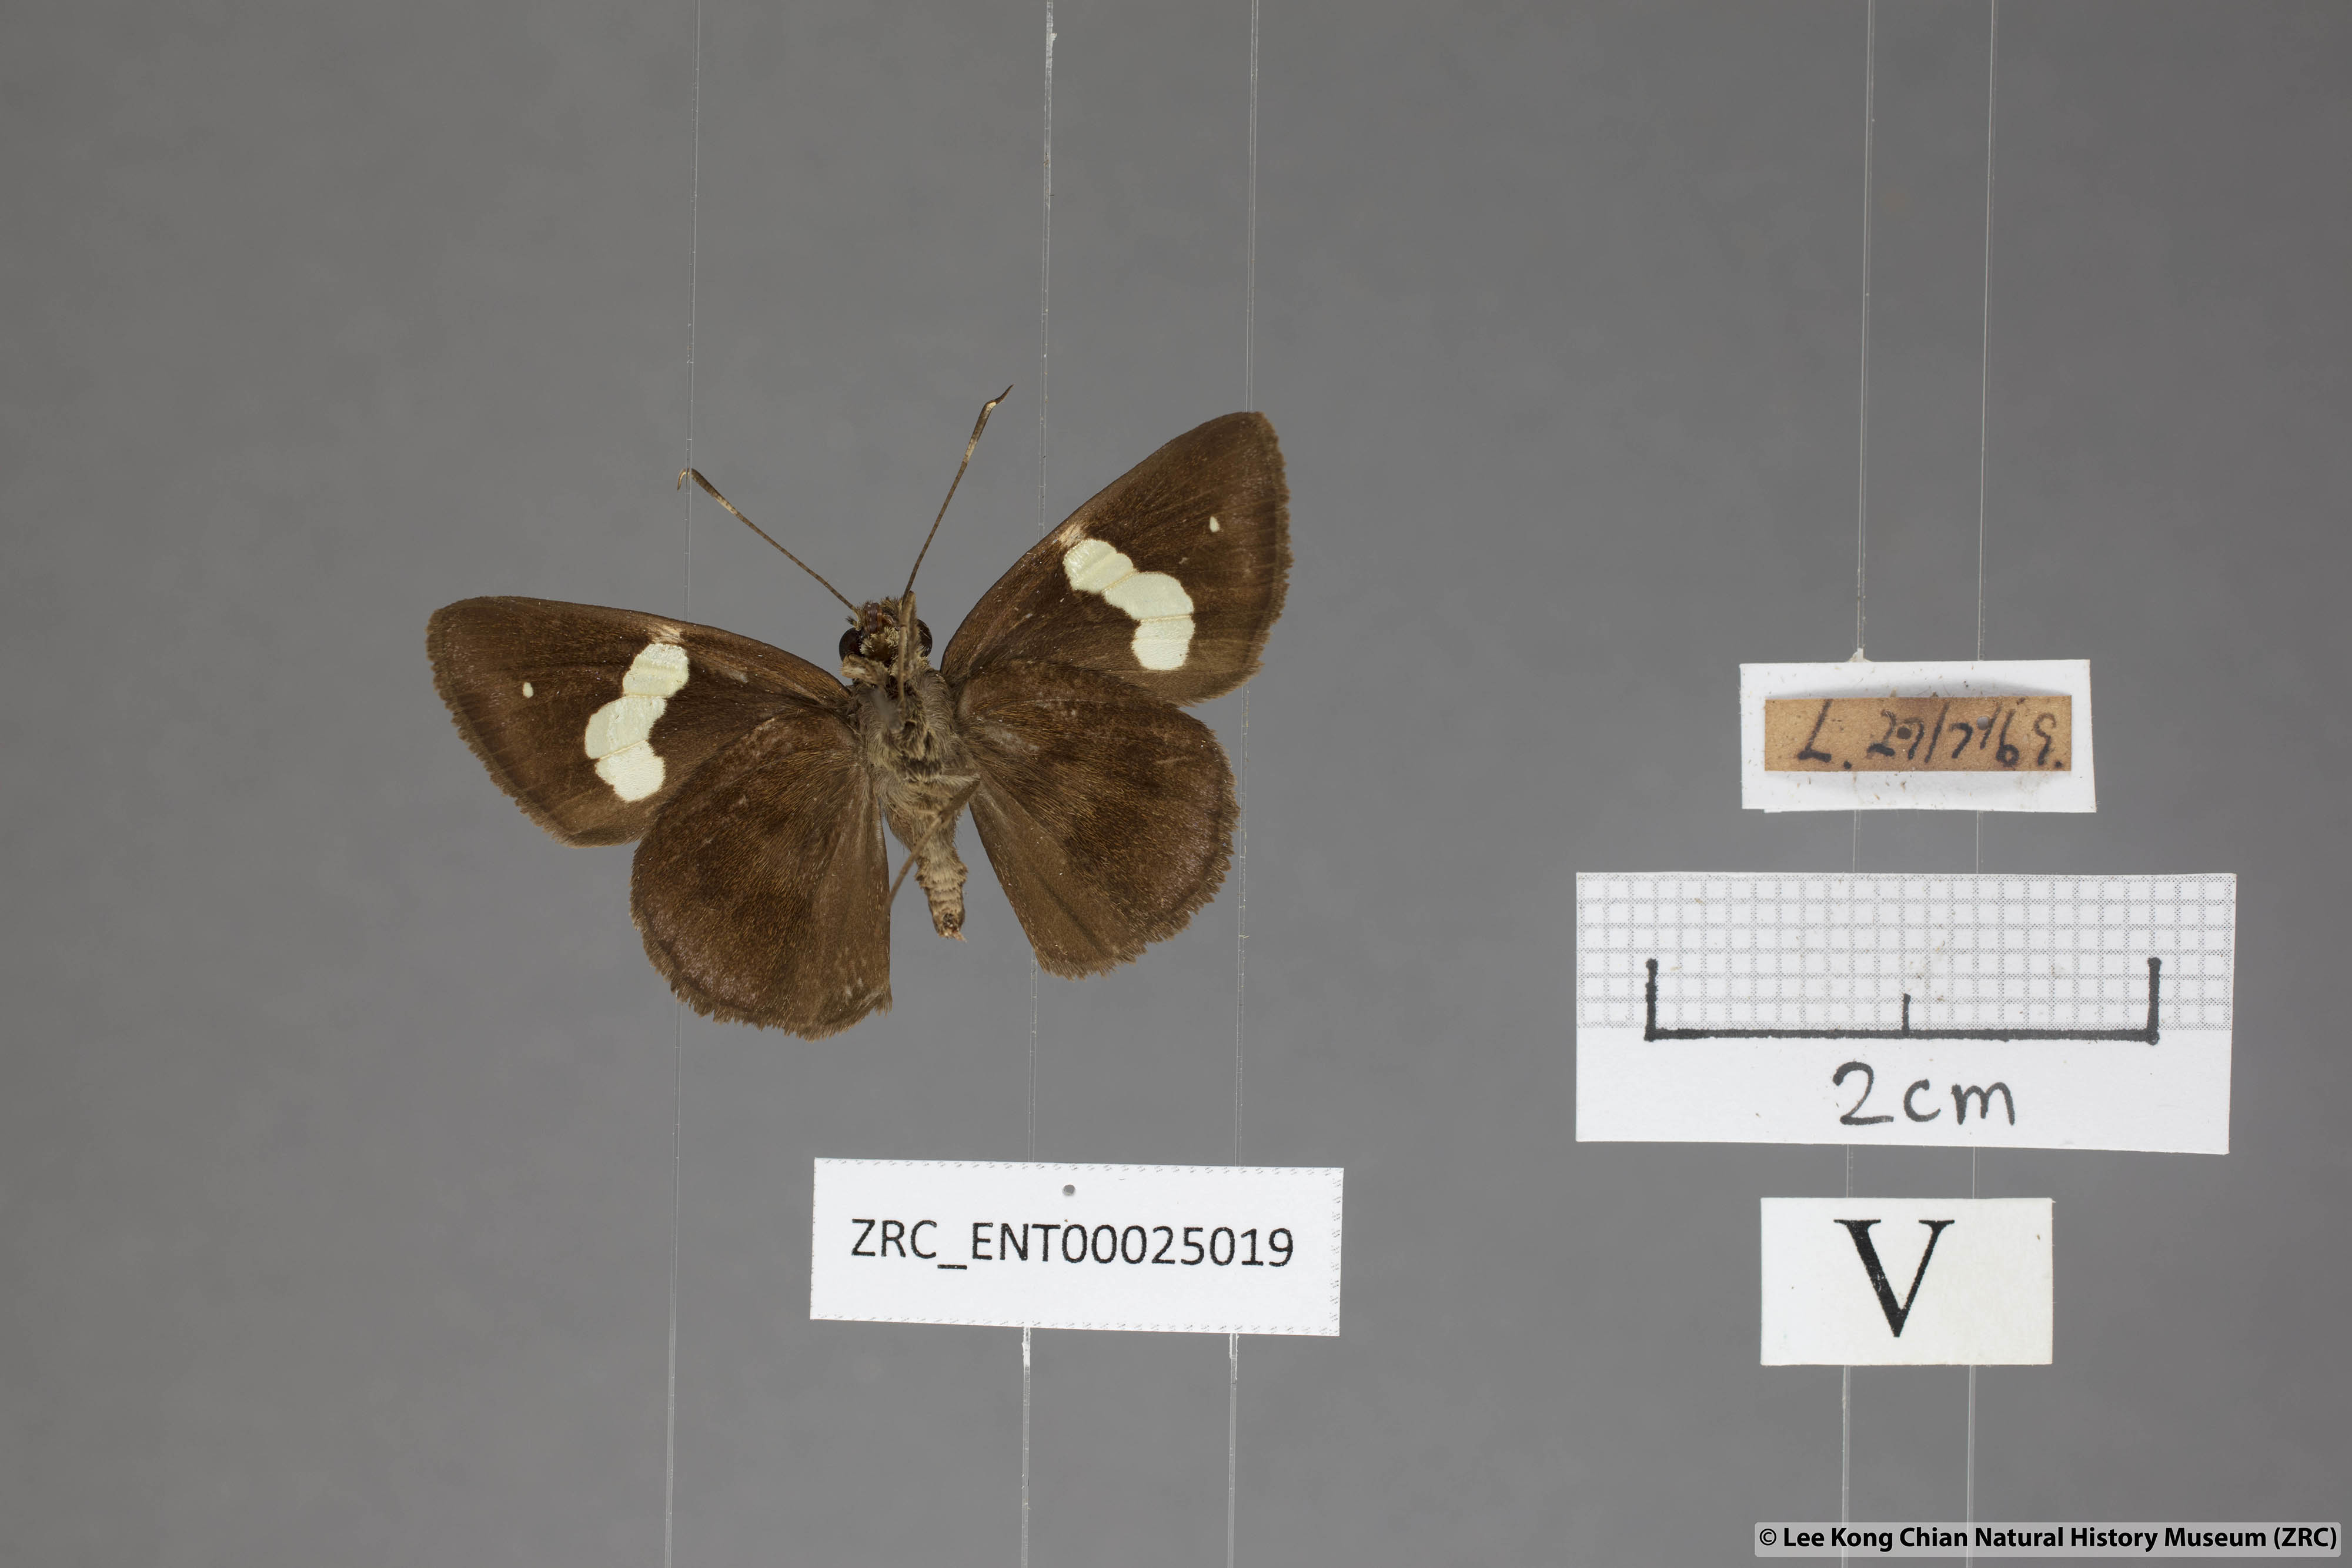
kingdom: Animalia
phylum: Arthropoda
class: Insecta
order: Lepidoptera
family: Hesperiidae
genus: Notocrypta
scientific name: Notocrypta paralysos
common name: Common banded demon
